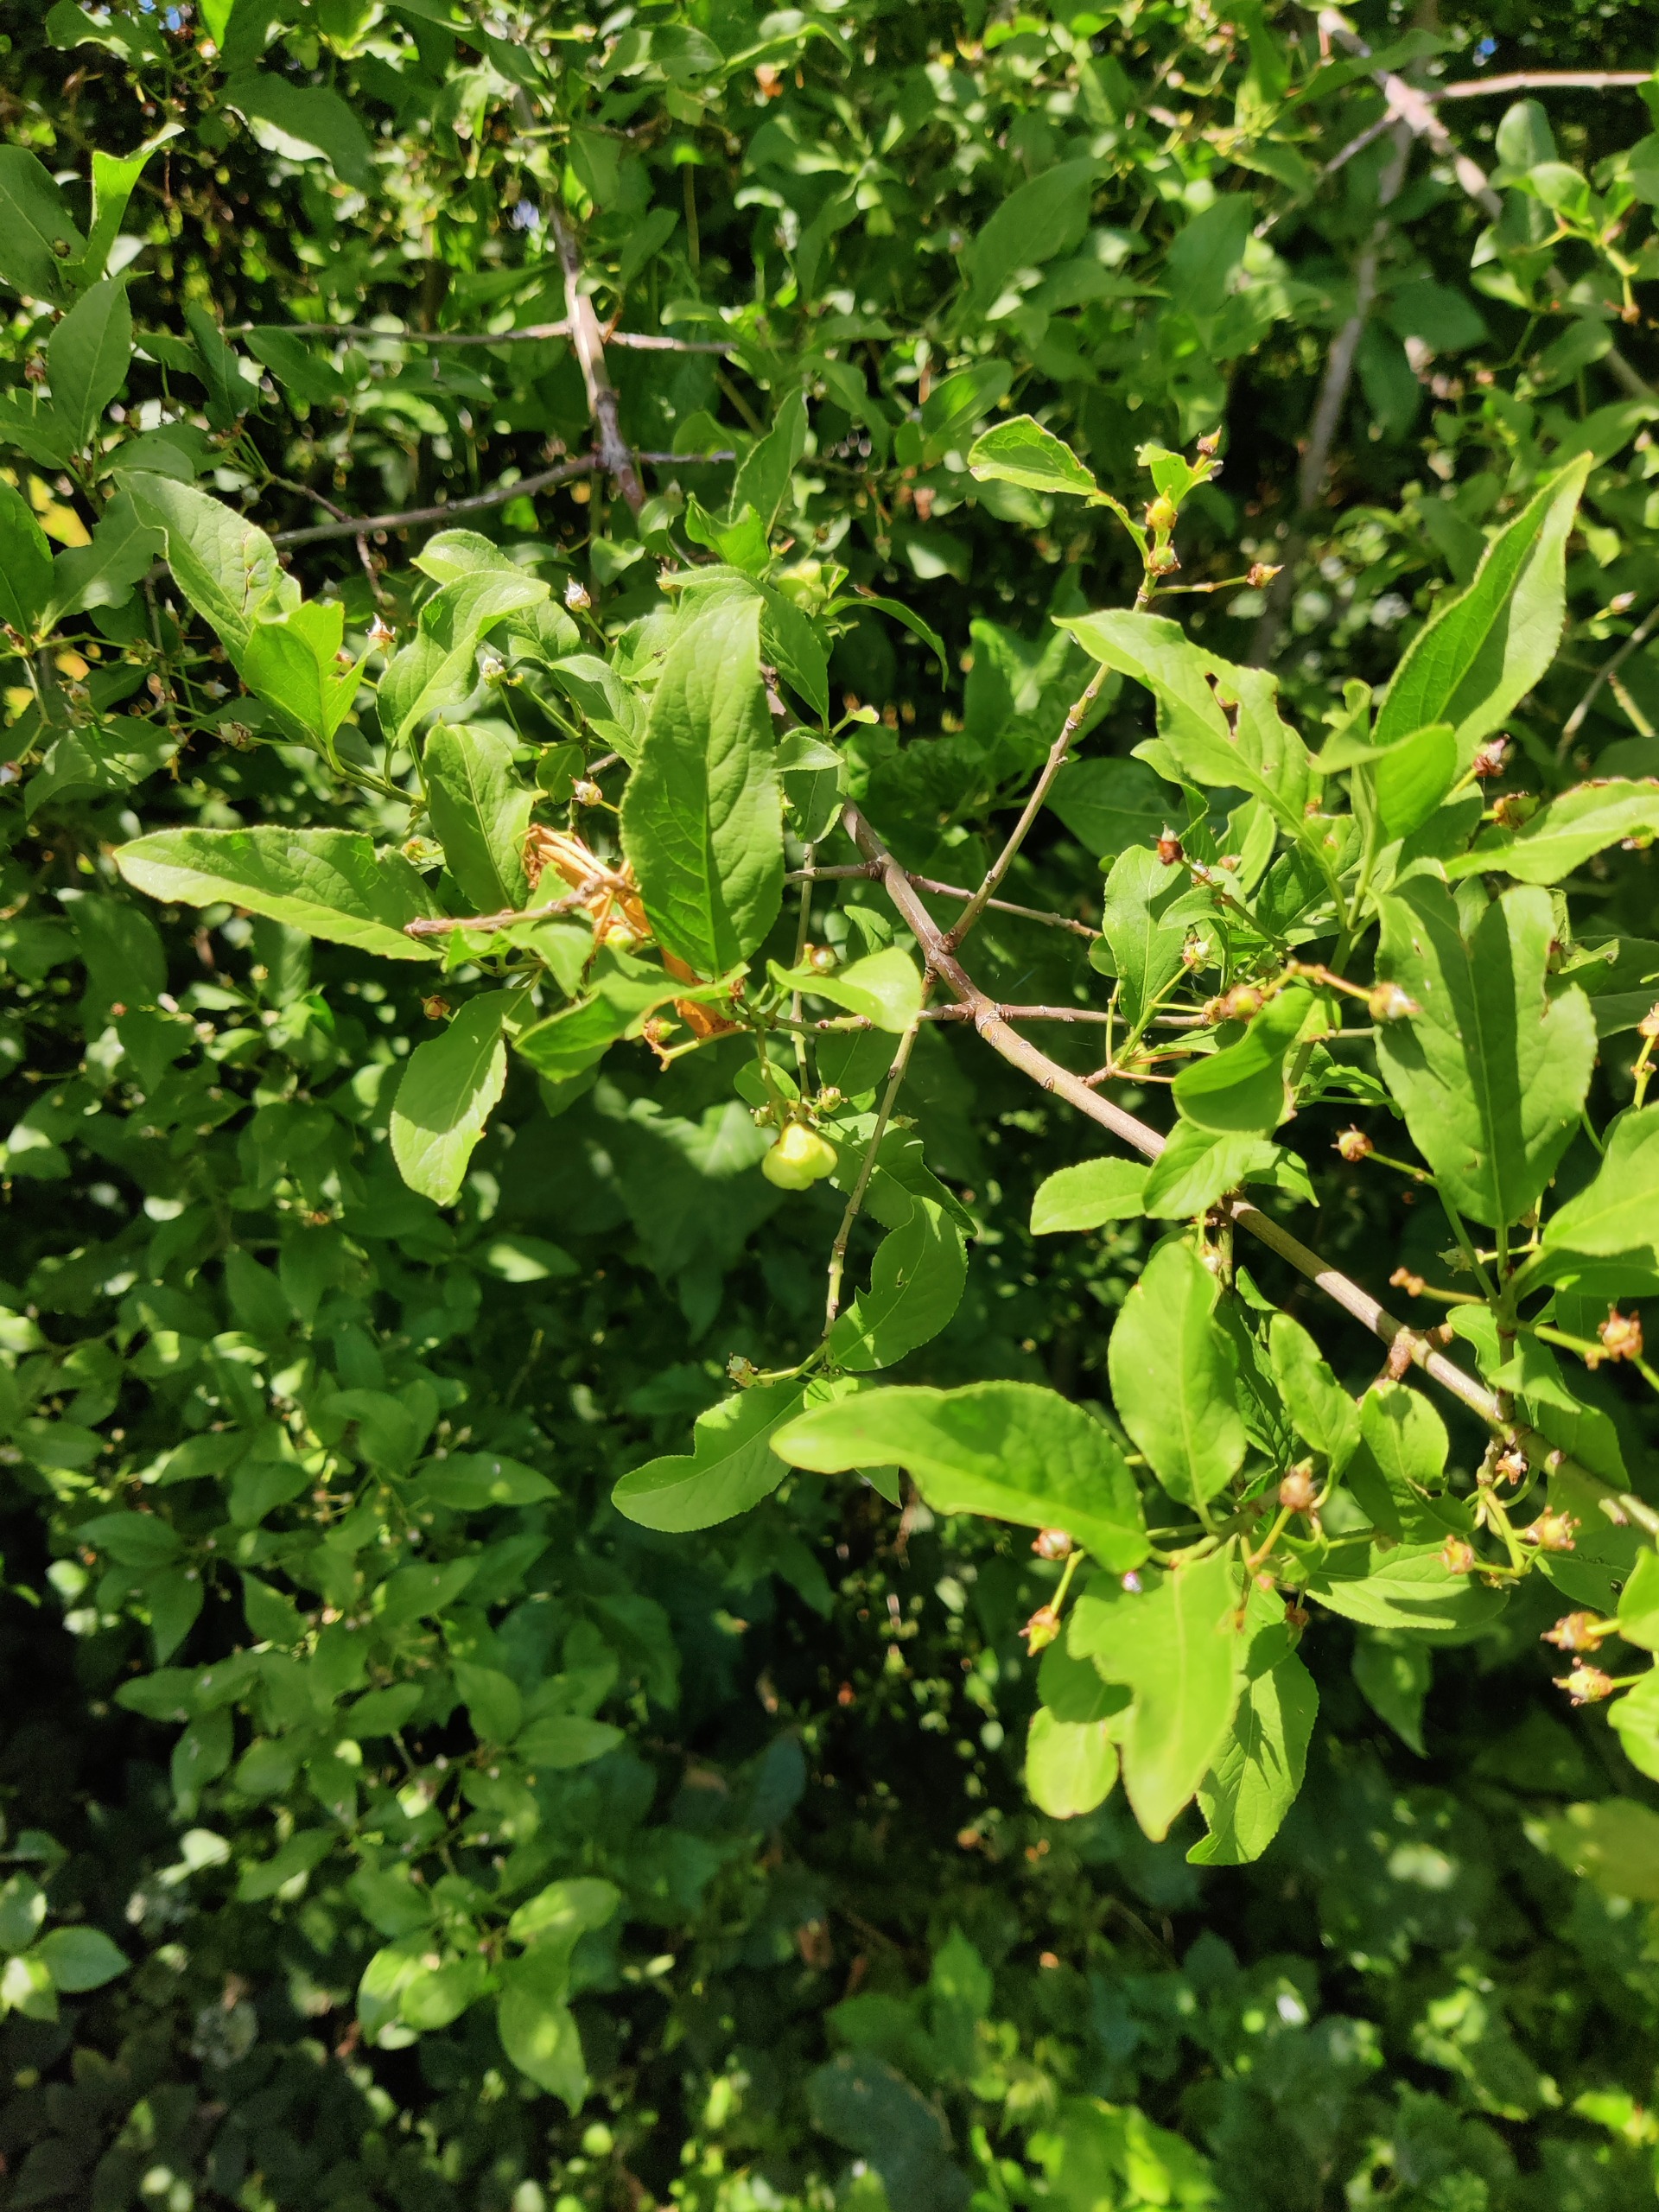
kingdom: Plantae
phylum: Tracheophyta
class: Magnoliopsida
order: Celastrales
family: Celastraceae
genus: Euonymus
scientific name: Euonymus europaeus
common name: Benved
